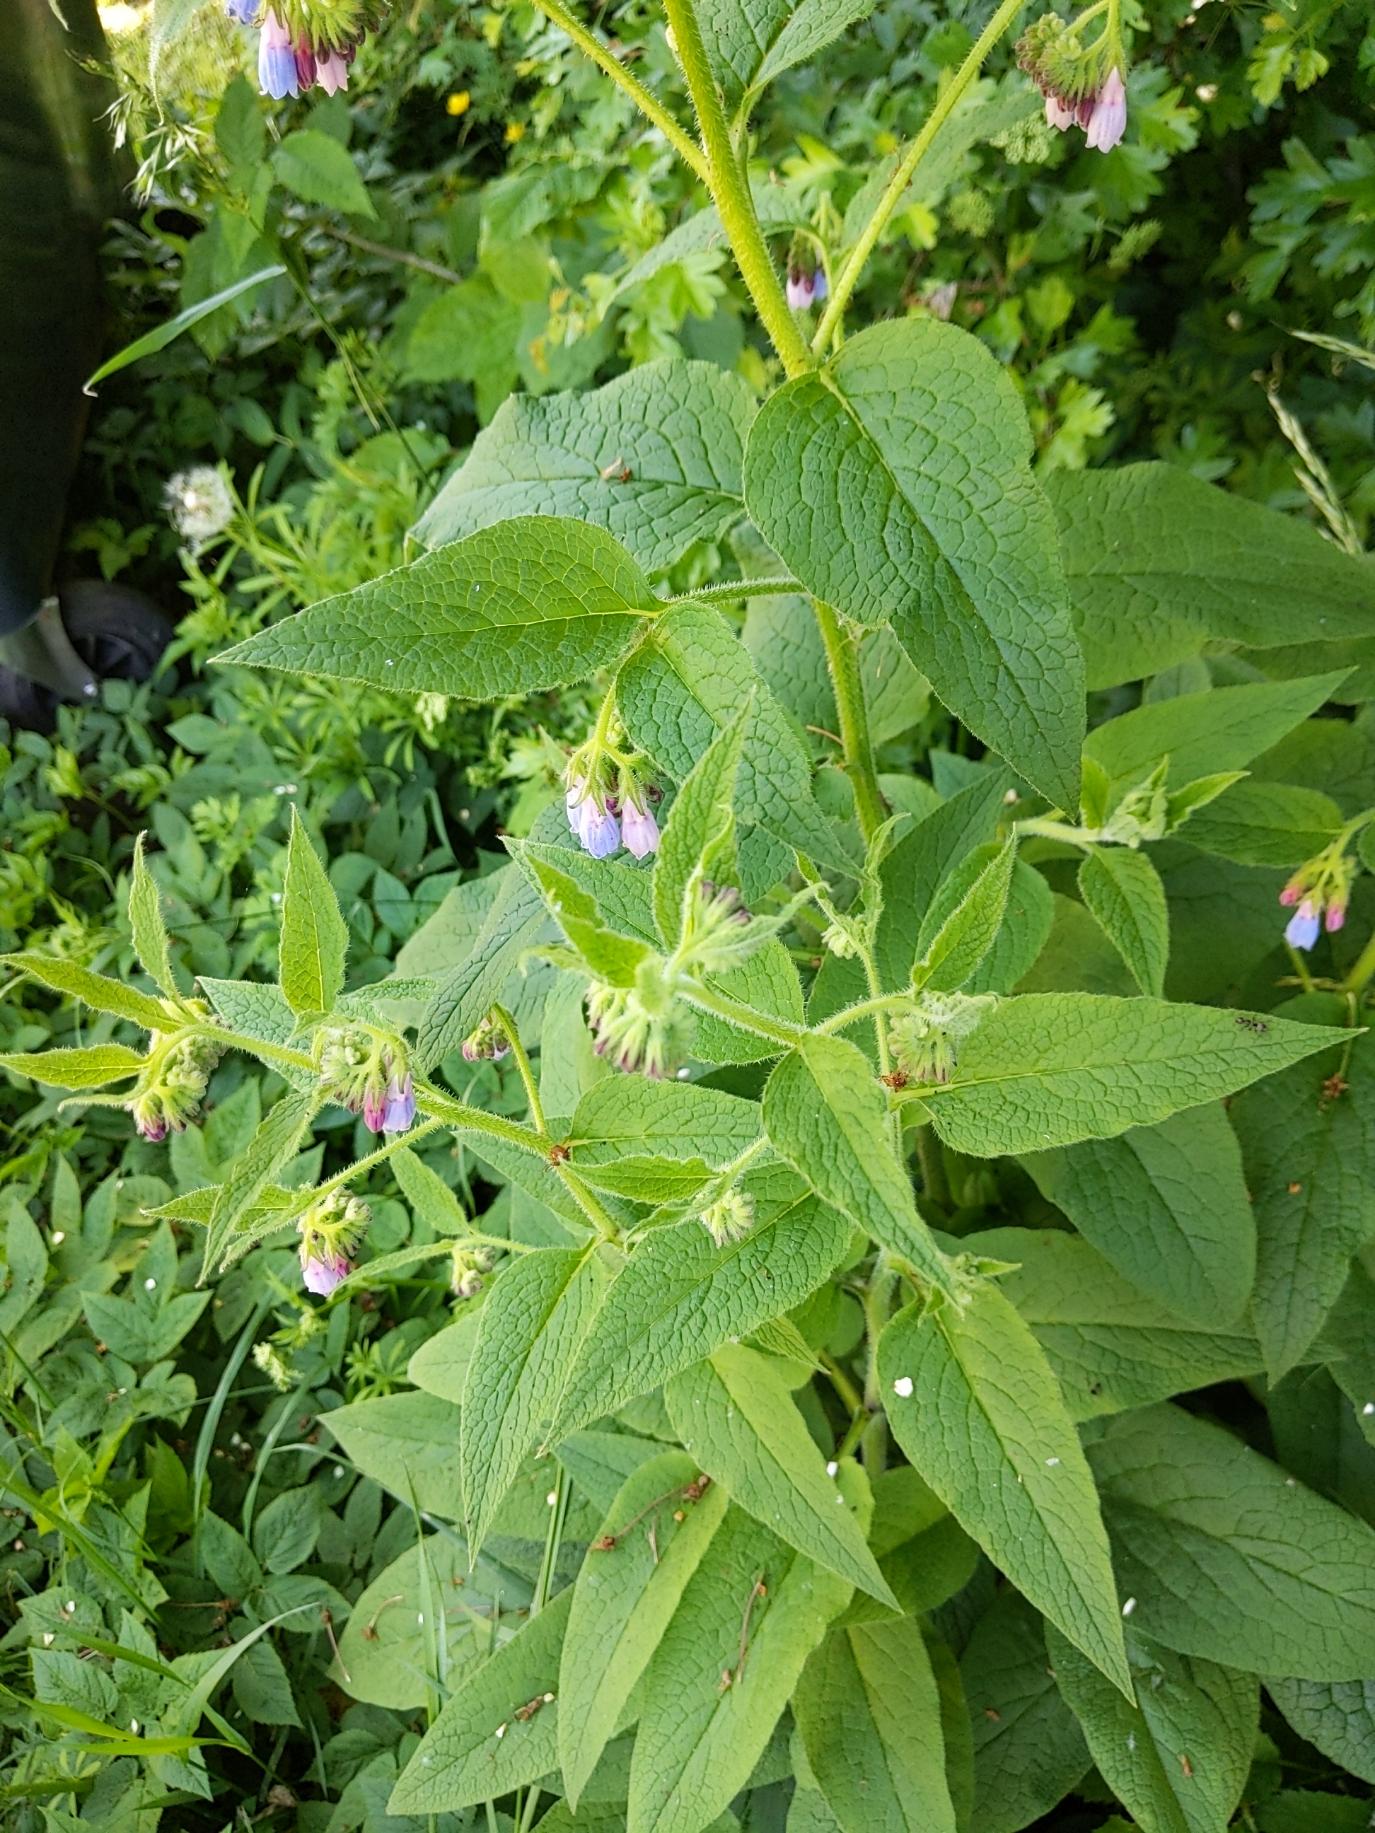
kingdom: Plantae
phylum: Tracheophyta
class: Magnoliopsida
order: Boraginales
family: Boraginaceae
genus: Symphytum
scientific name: Symphytum uplandicum
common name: Foder-kulsukker
